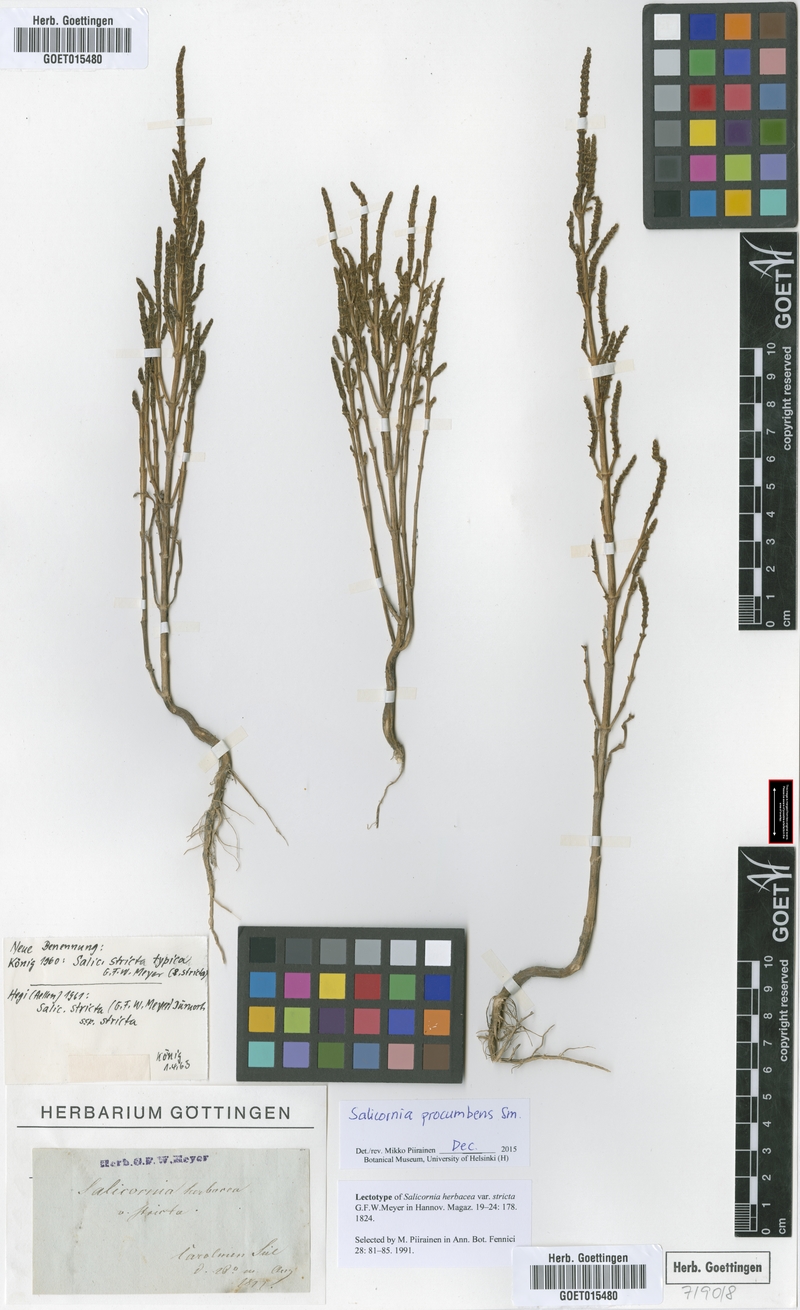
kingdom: Plantae
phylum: Tracheophyta
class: Magnoliopsida
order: Caryophyllales
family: Amaranthaceae
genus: Salicornia
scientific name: Salicornia procumbens
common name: Long-spiked glasswort
